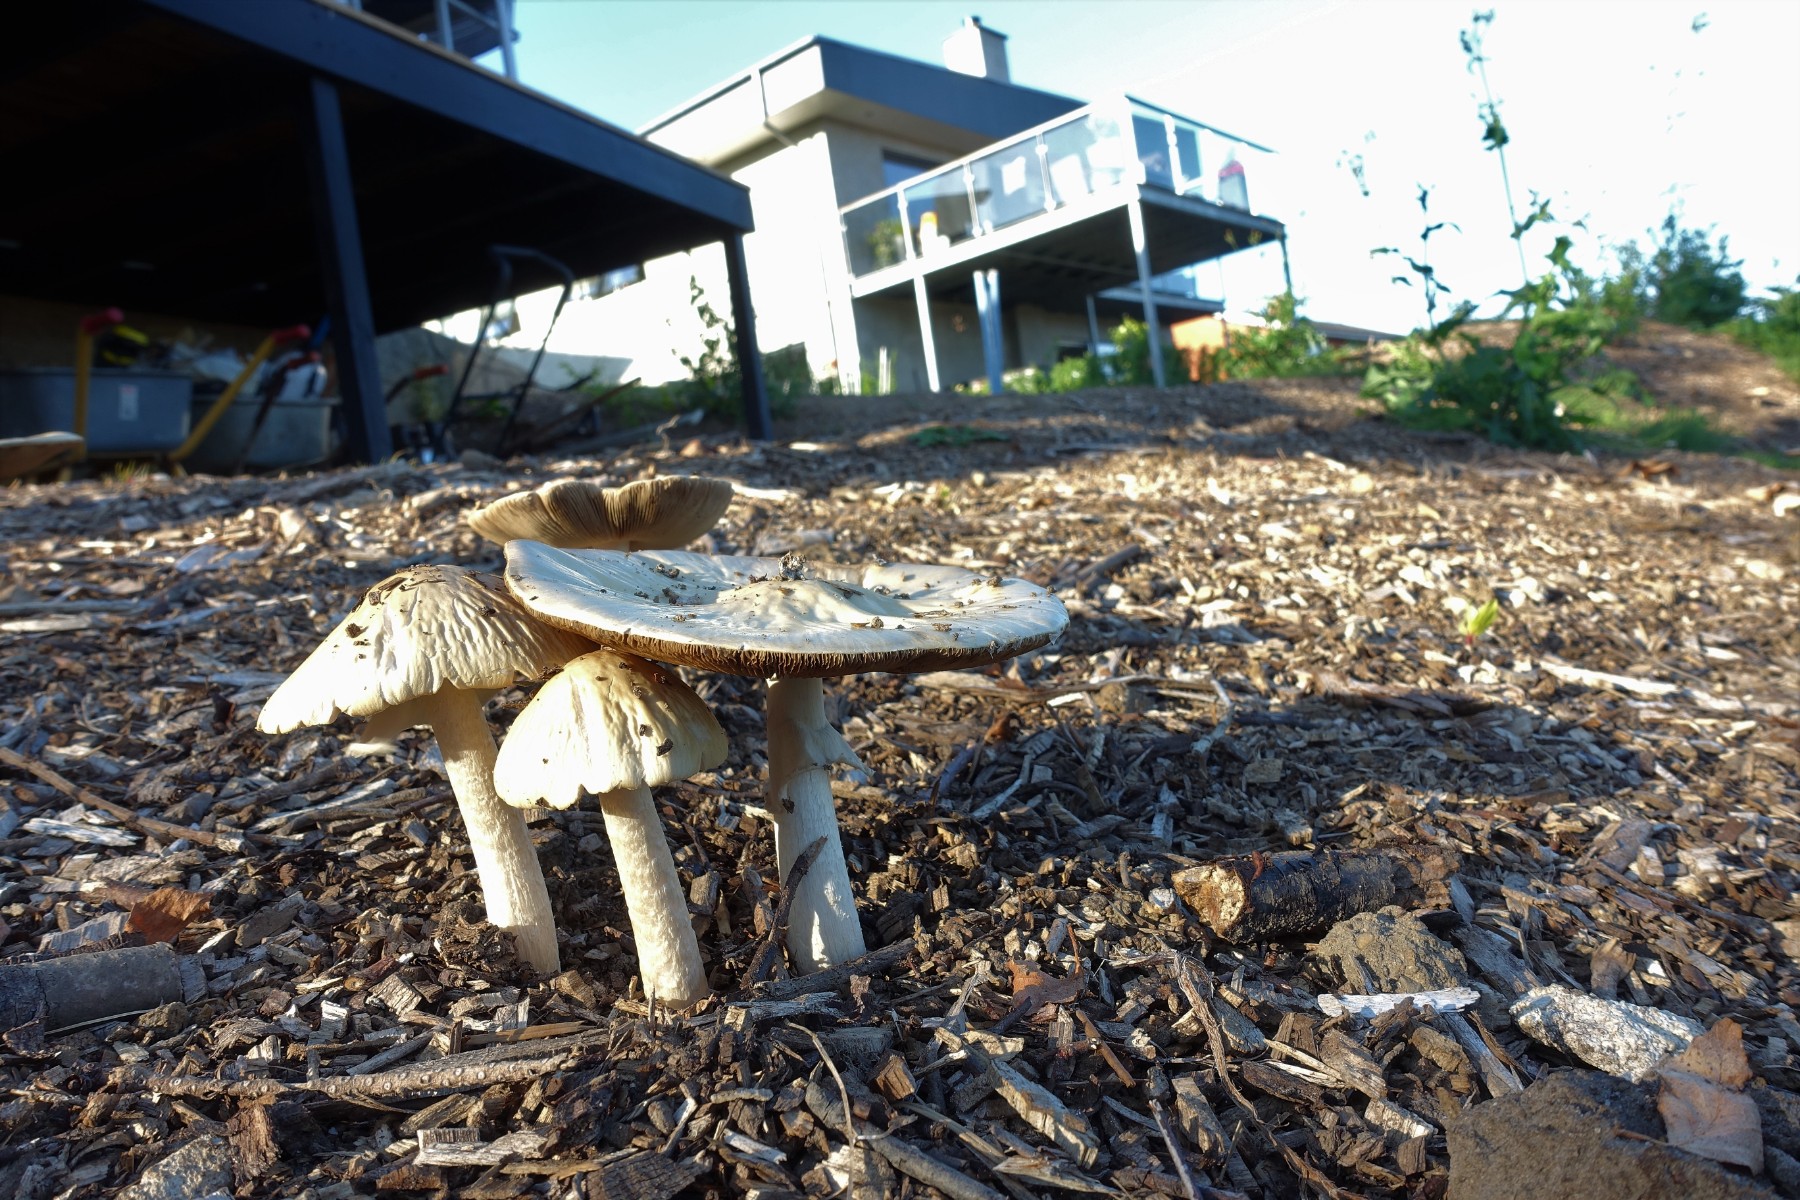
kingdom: Fungi
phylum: Basidiomycota
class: Agaricomycetes
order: Agaricales
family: Strophariaceae
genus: Agrocybe
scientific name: Agrocybe rivulosa
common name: året agerhat
